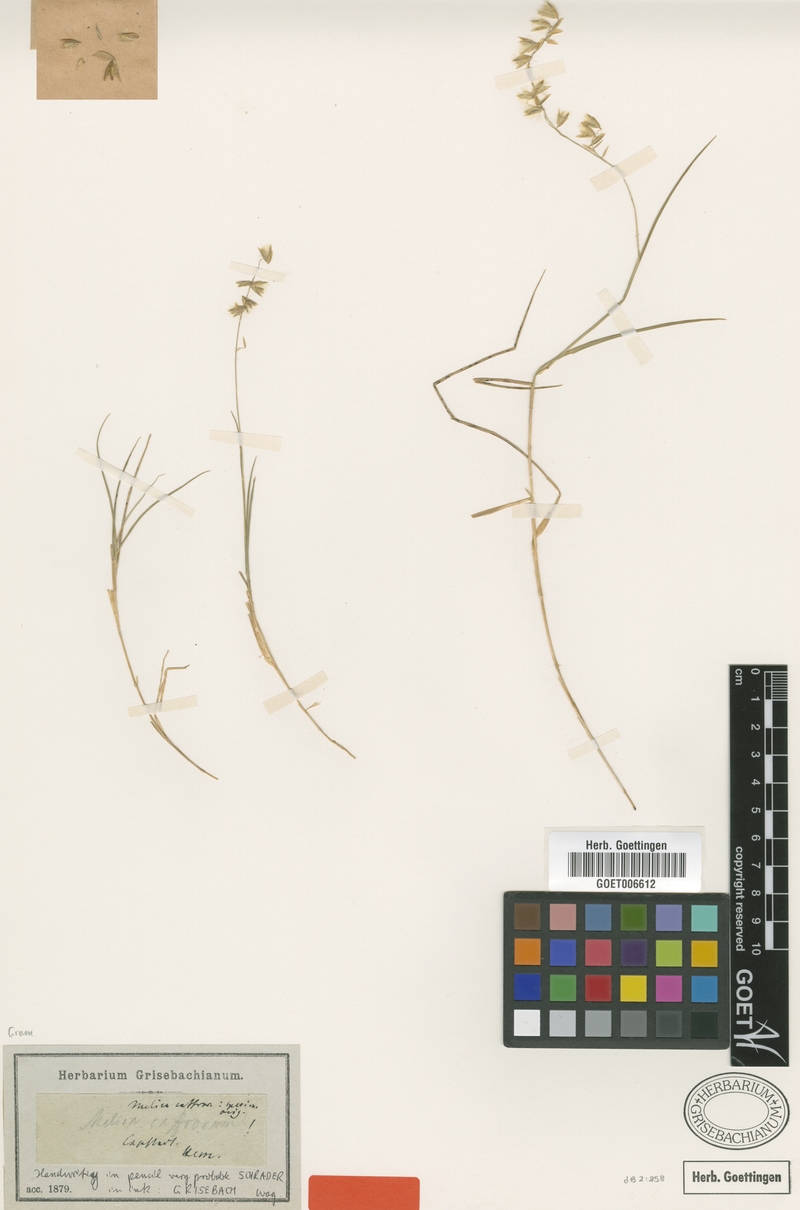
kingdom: Plantae
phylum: Tracheophyta
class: Liliopsida
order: Poales
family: Poaceae
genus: Melica
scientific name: Melica racemosa
